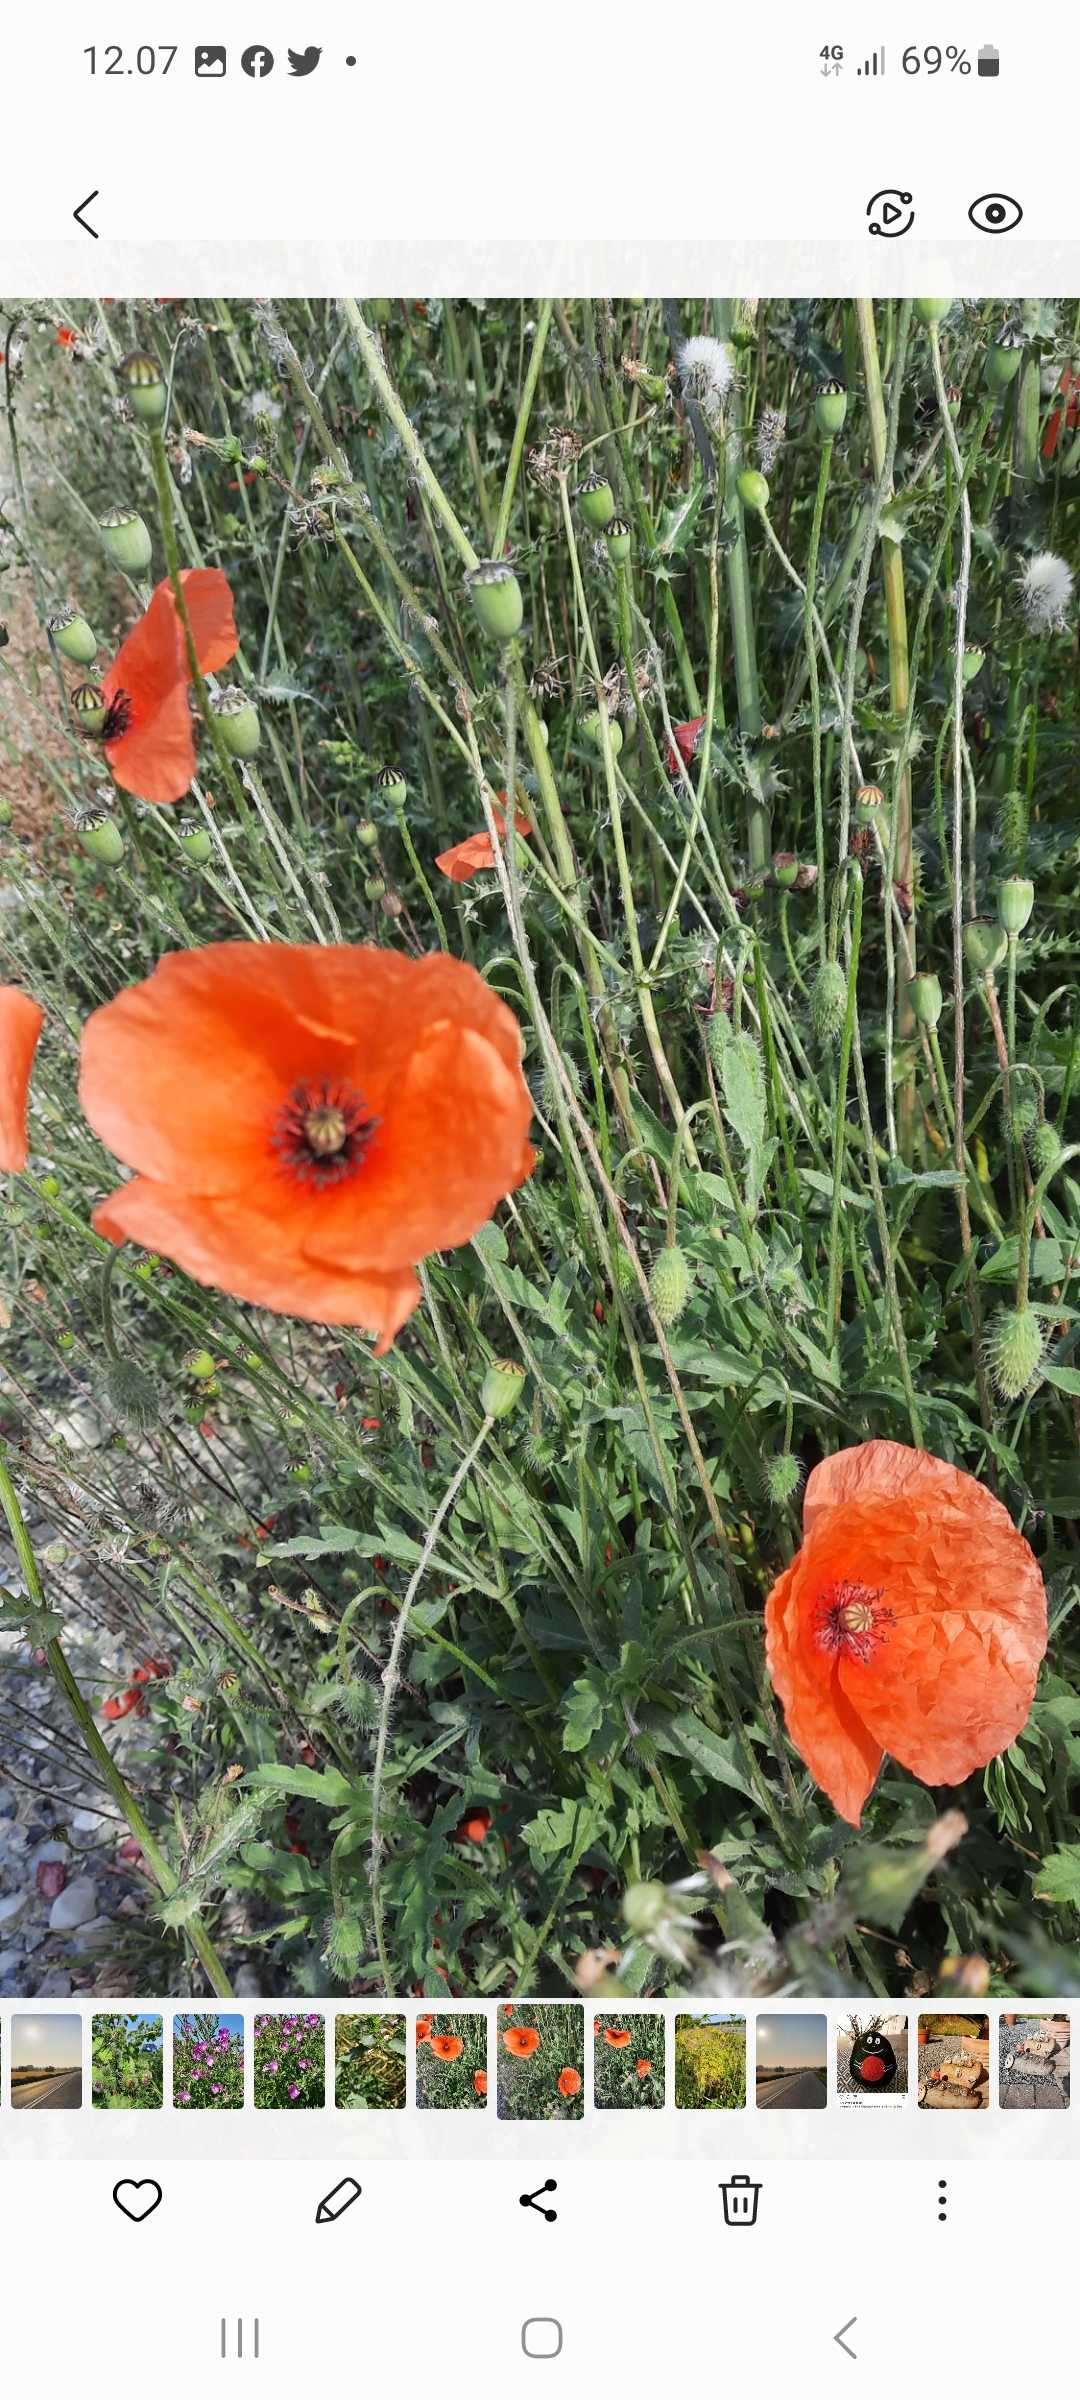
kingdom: Plantae
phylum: Tracheophyta
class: Magnoliopsida
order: Ranunculales
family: Papaveraceae
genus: Papaver
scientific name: Papaver rhoeas
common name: Korn-valmue
